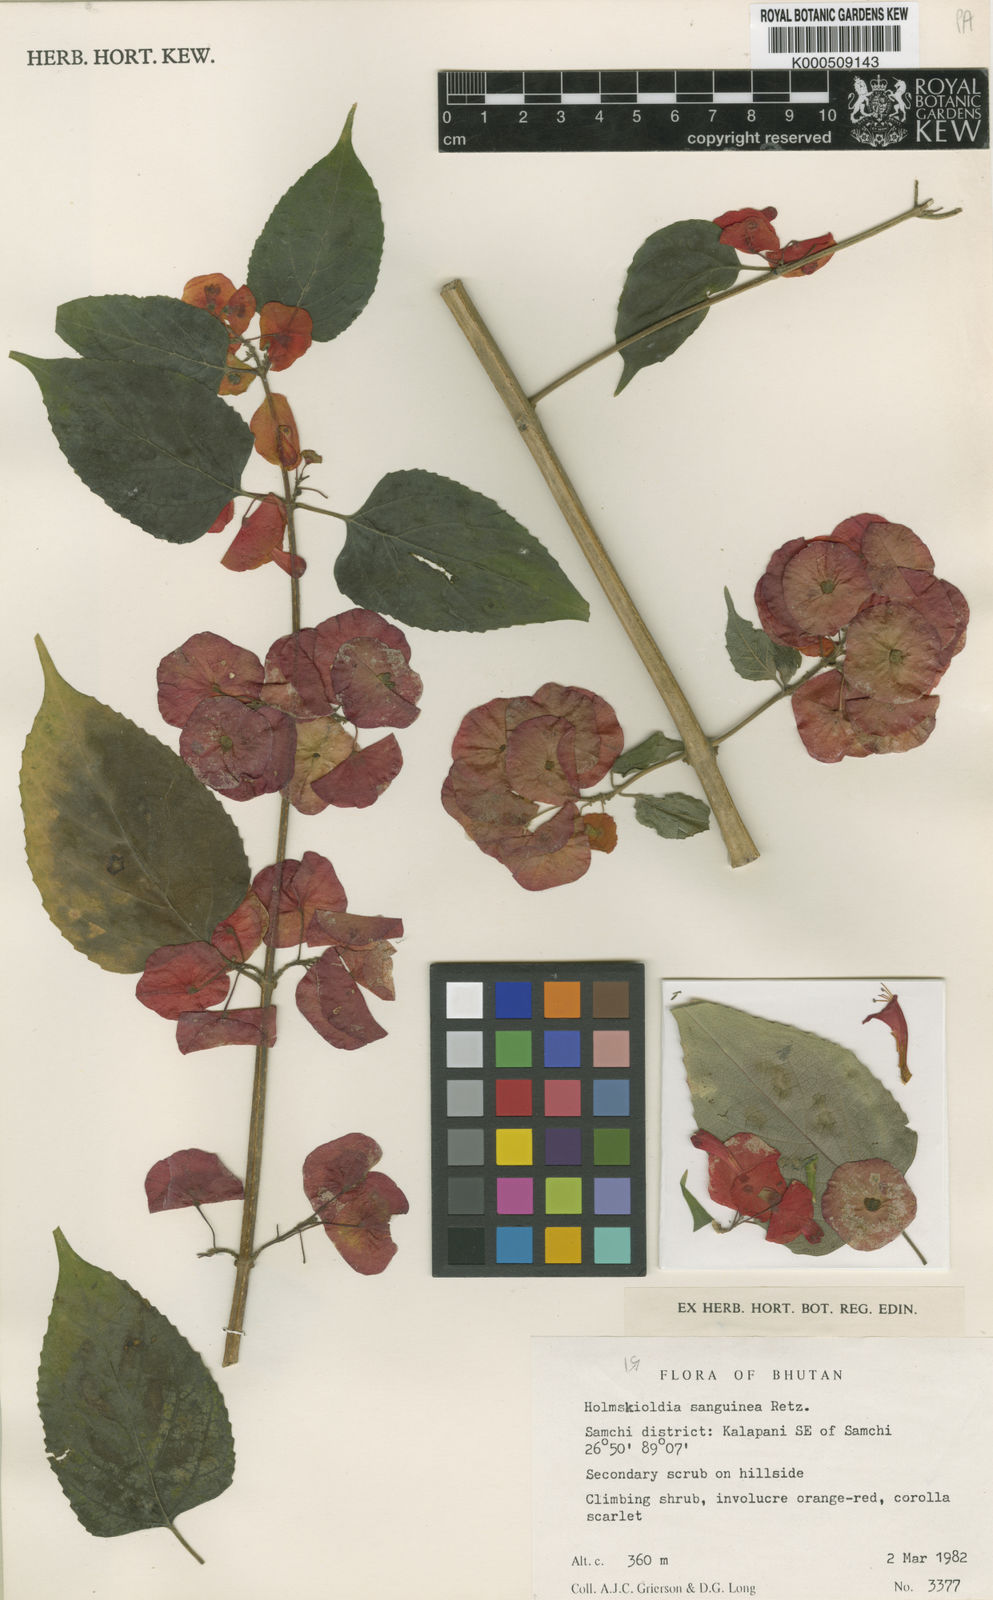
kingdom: Plantae
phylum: Tracheophyta
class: Magnoliopsida
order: Lamiales
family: Lamiaceae
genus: Holmskioldia
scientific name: Holmskioldia sanguinea
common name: Chinese hatplant
